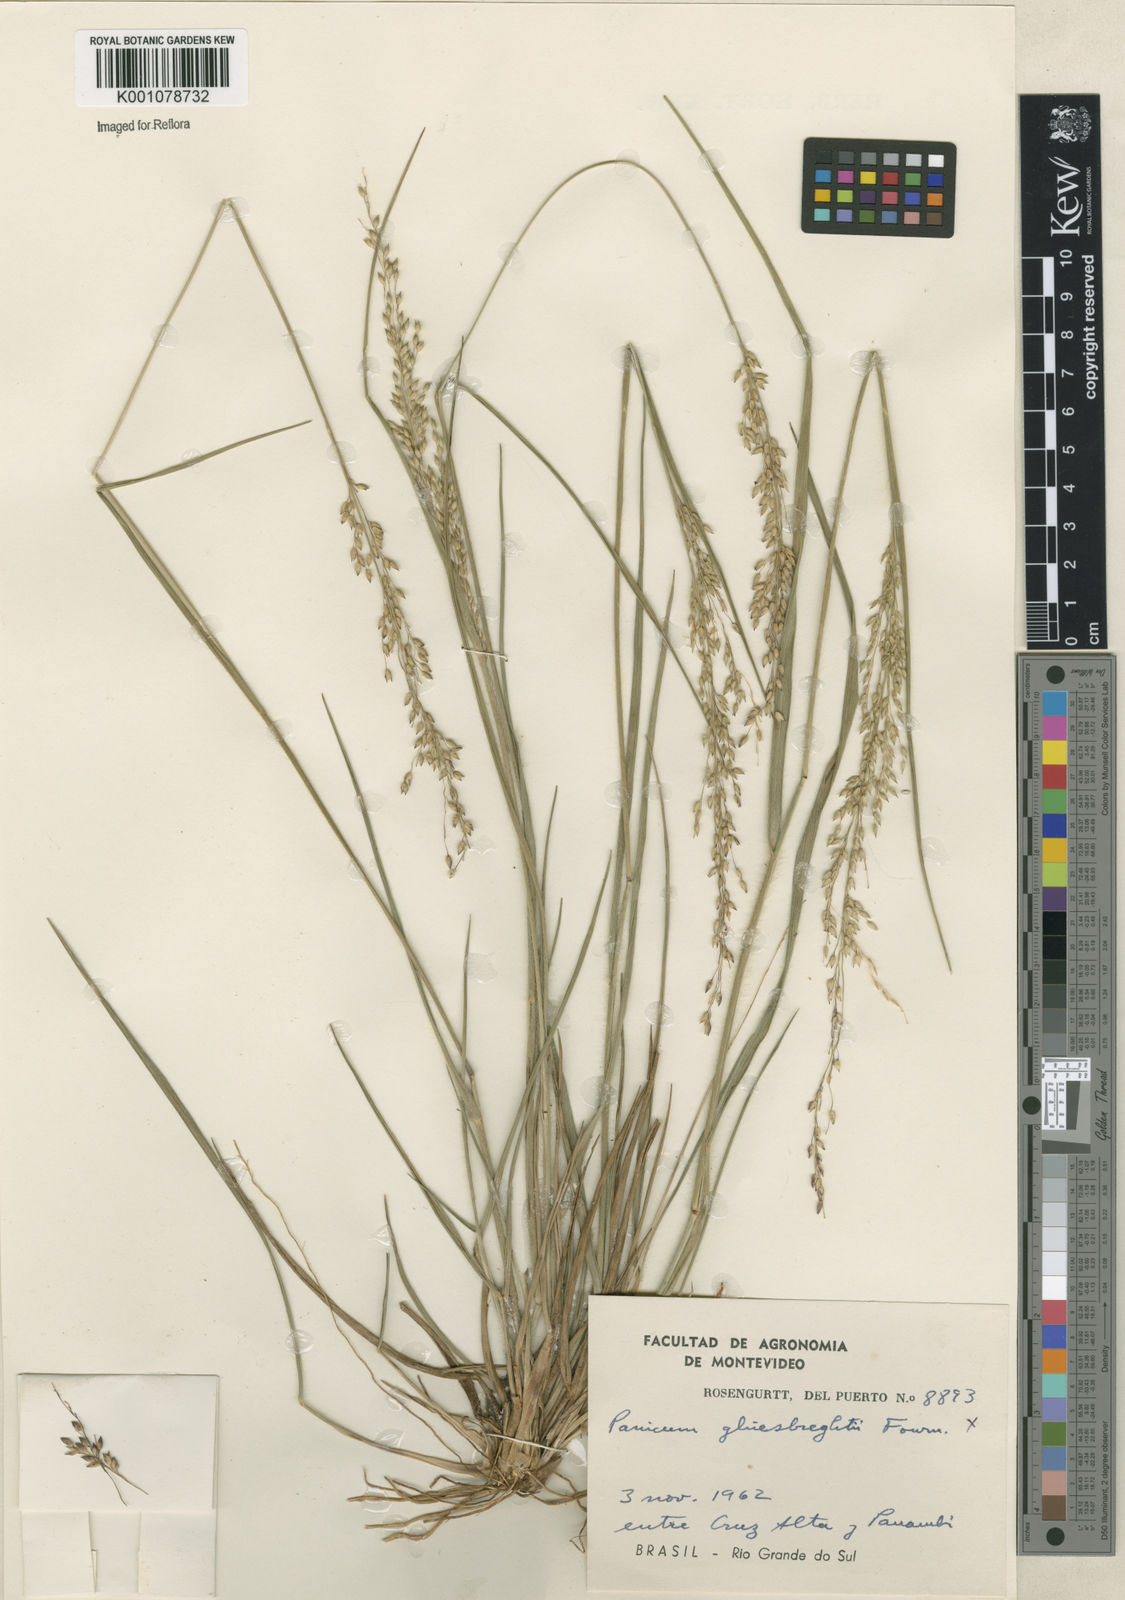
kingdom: Plantae
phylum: Tracheophyta
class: Liliopsida
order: Poales
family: Poaceae
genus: Panicum
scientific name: Panicum
